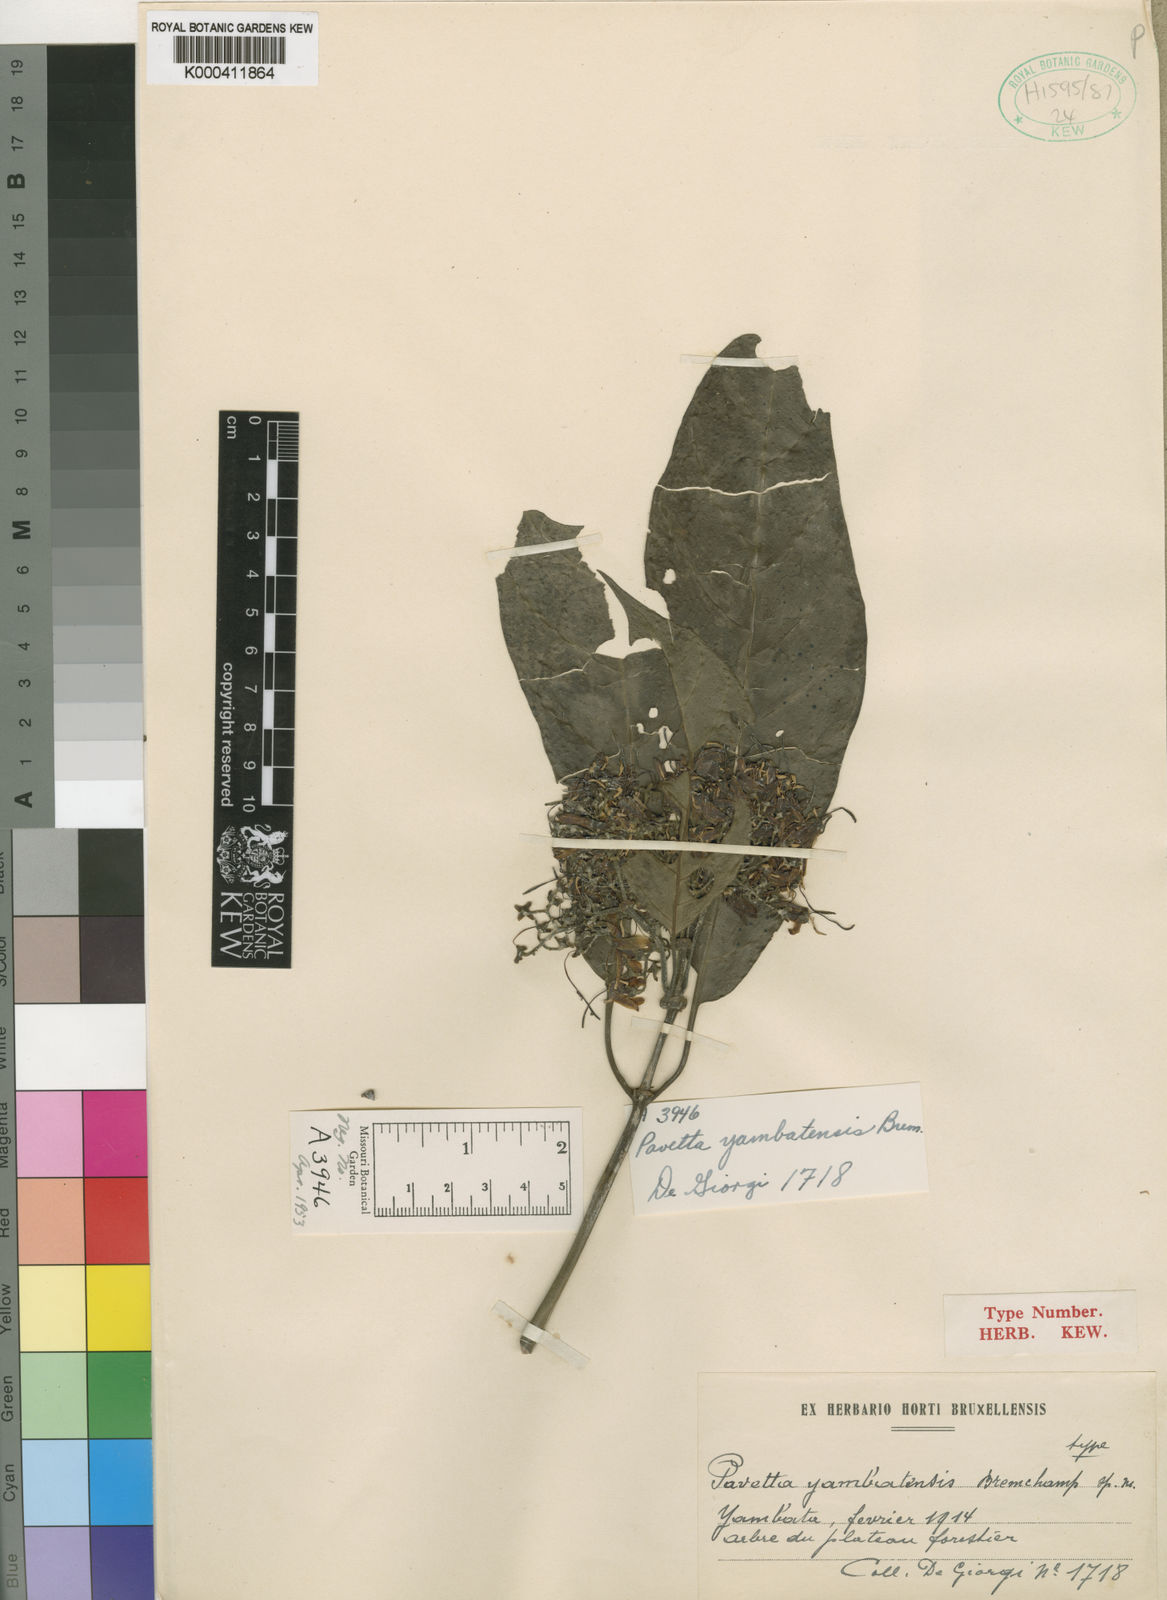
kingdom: Plantae
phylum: Tracheophyta
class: Magnoliopsida
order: Gentianales
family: Rubiaceae
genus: Pavetta
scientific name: Pavetta yambatensis
